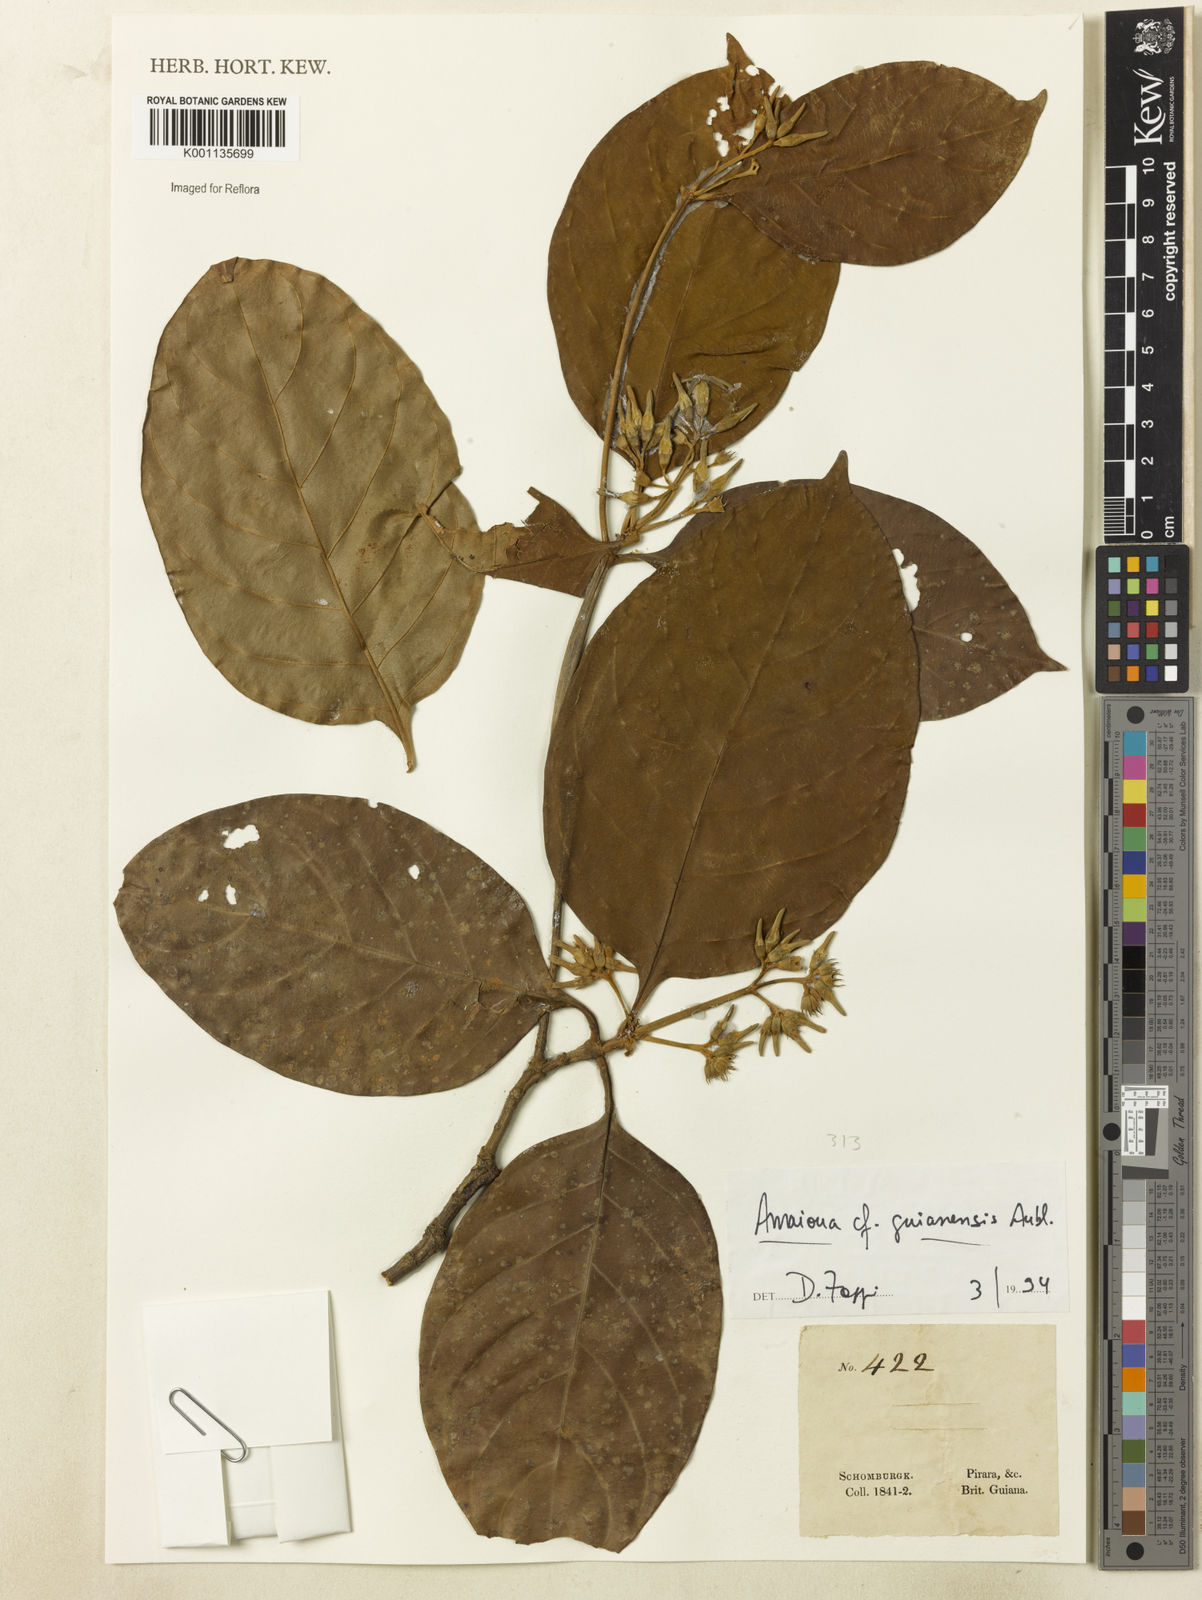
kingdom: Plantae
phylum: Tracheophyta
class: Magnoliopsida
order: Gentianales
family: Rubiaceae
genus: Amaioua
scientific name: Amaioua guianensis
